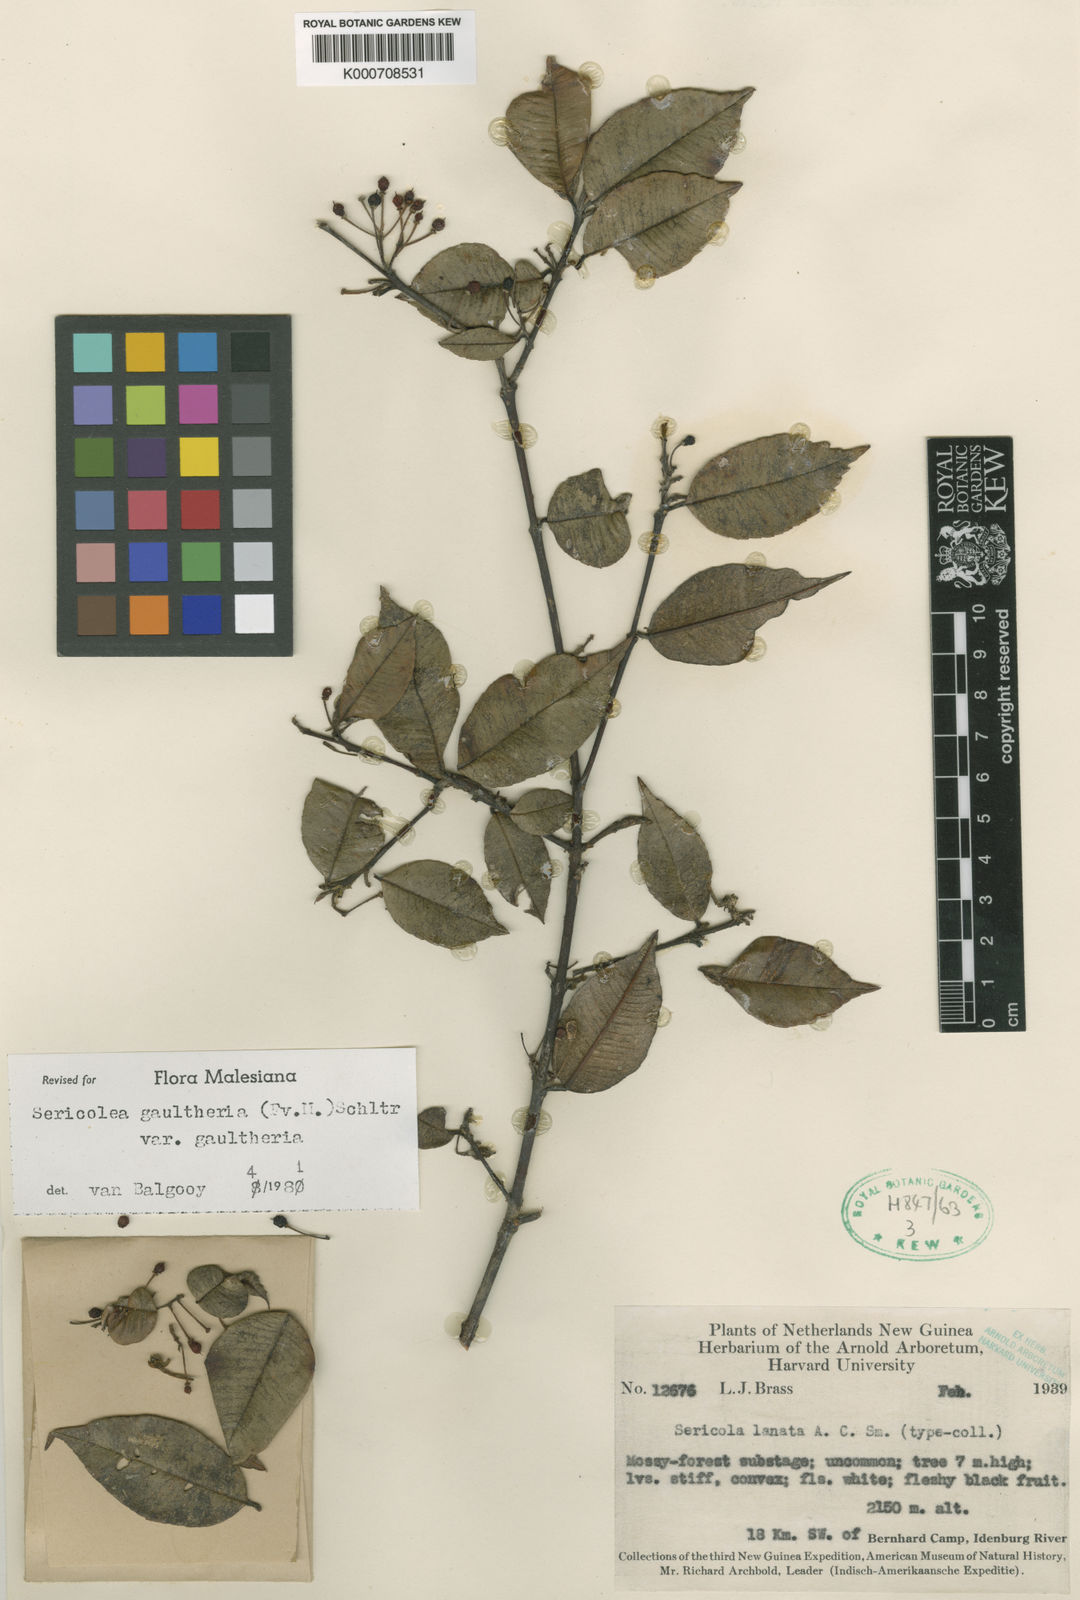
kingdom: Plantae
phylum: Tracheophyta
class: Magnoliopsida
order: Oxalidales
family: Elaeocarpaceae
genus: Sericolea
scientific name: Sericolea gaultheria
